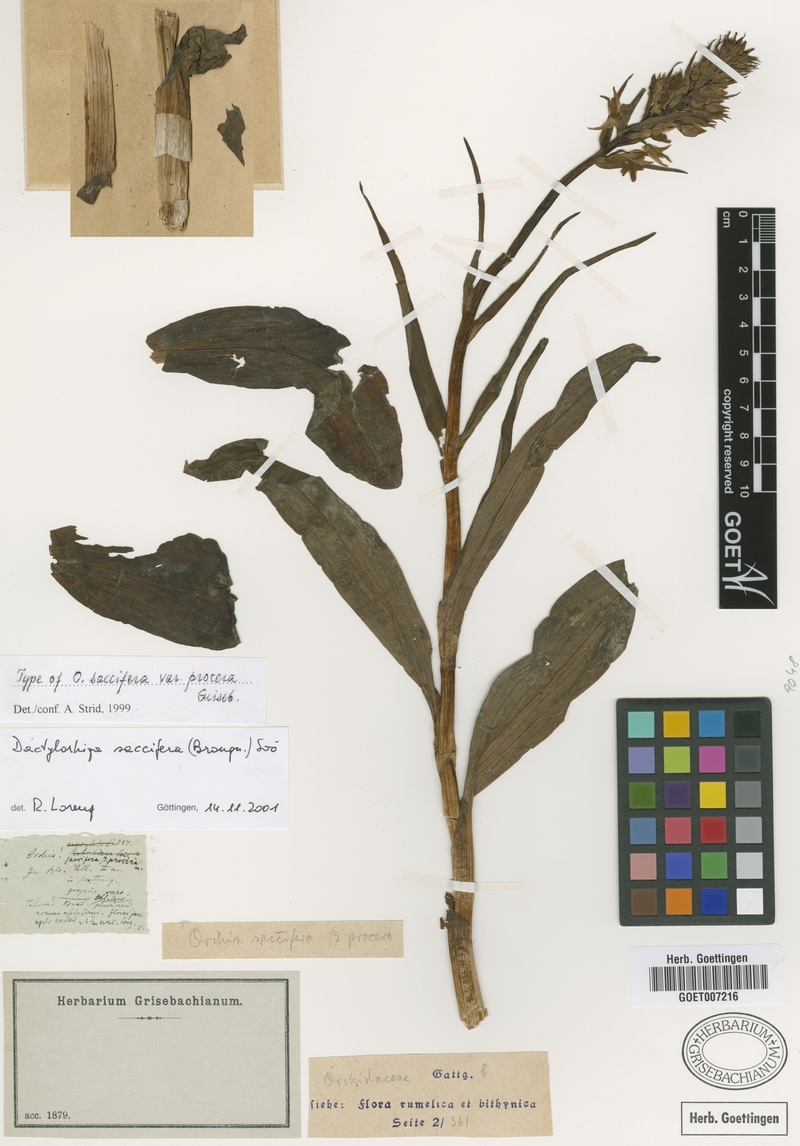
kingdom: Plantae
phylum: Tracheophyta
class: Liliopsida
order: Asparagales
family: Orchidaceae
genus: Dactylorhiza
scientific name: Dactylorhiza maculata
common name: Heath spotted-orchid
